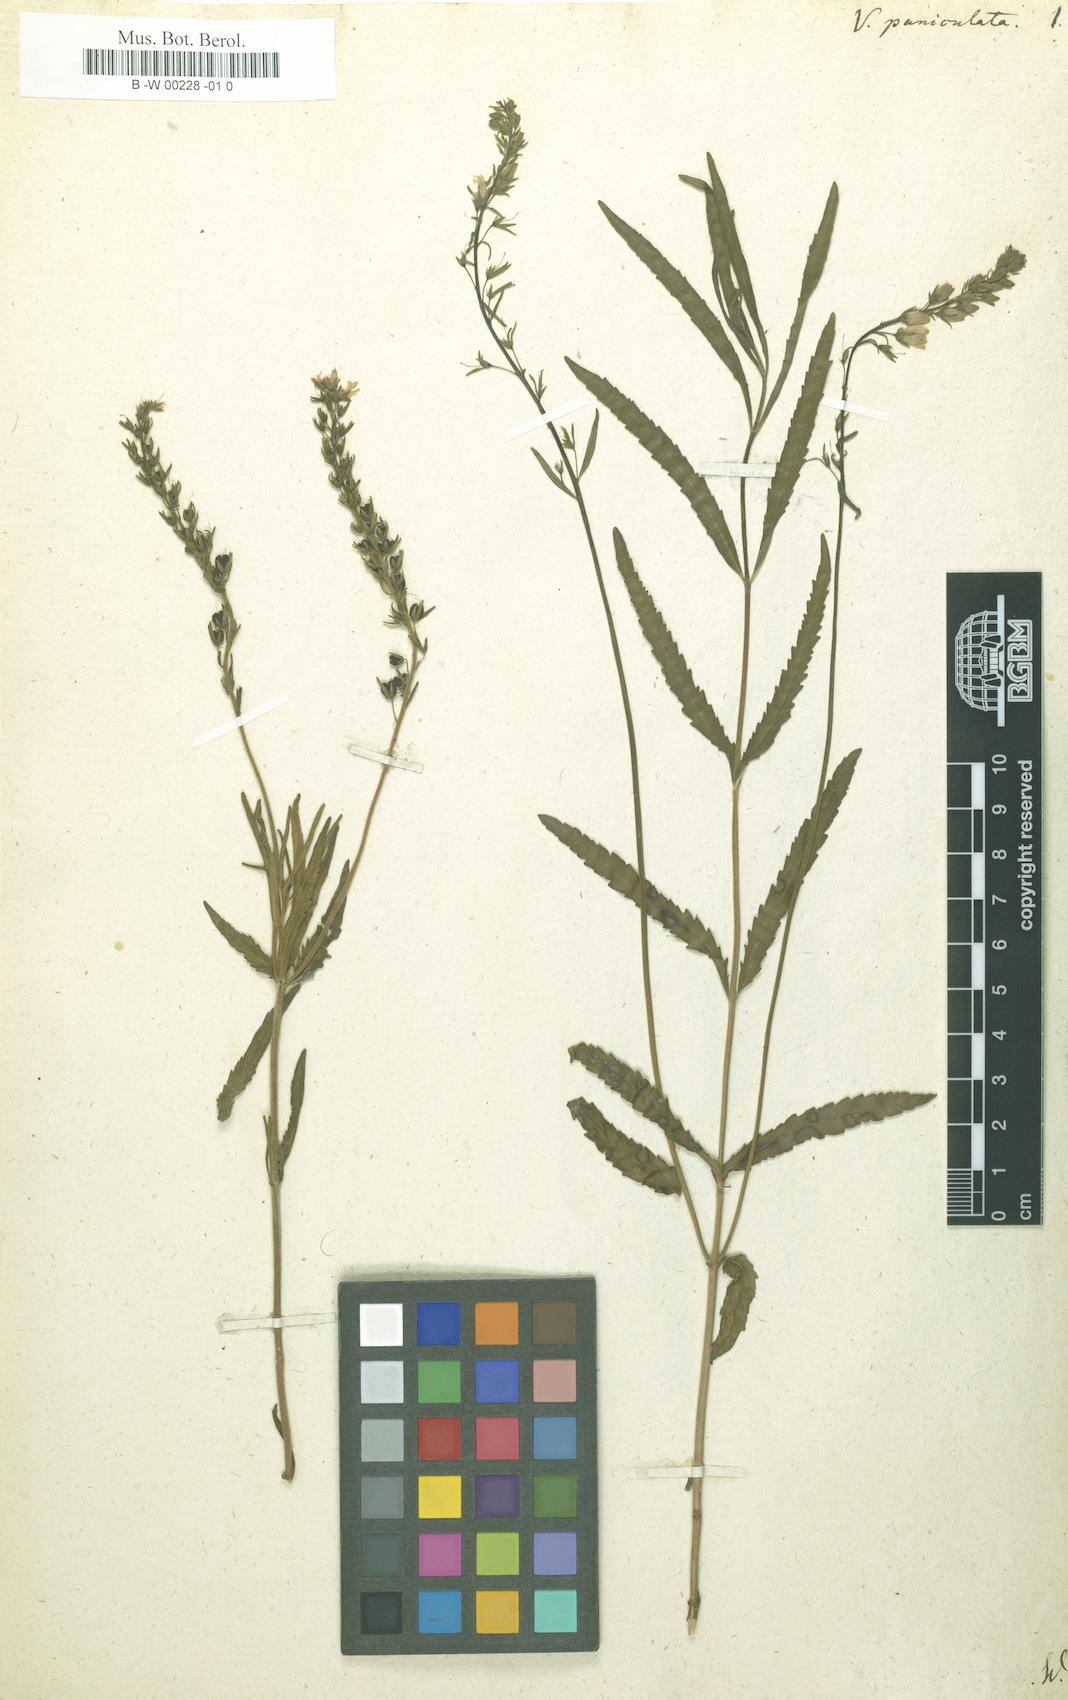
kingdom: Plantae
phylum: Tracheophyta
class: Magnoliopsida
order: Lamiales
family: Plantaginaceae
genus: Veronica
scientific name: Veronica
